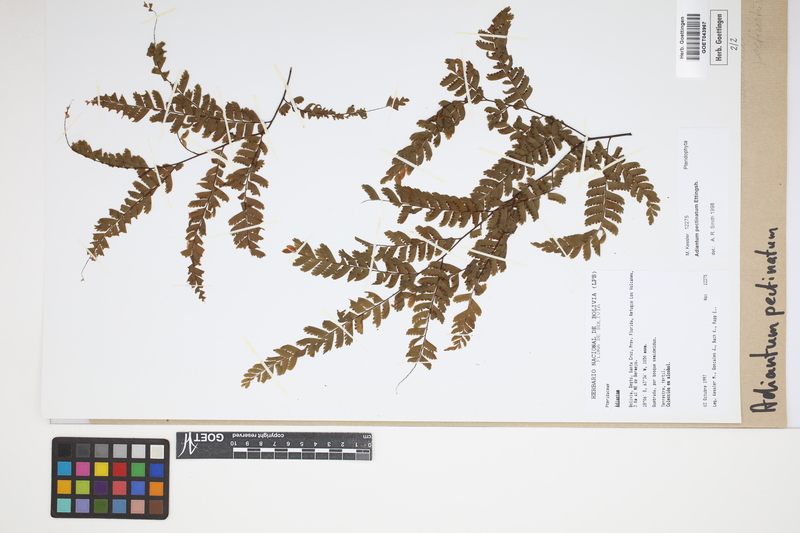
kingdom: Plantae
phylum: Tracheophyta
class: Polypodiopsida
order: Polypodiales
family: Pteridaceae
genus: Adiantum
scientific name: Adiantum pectinatum
